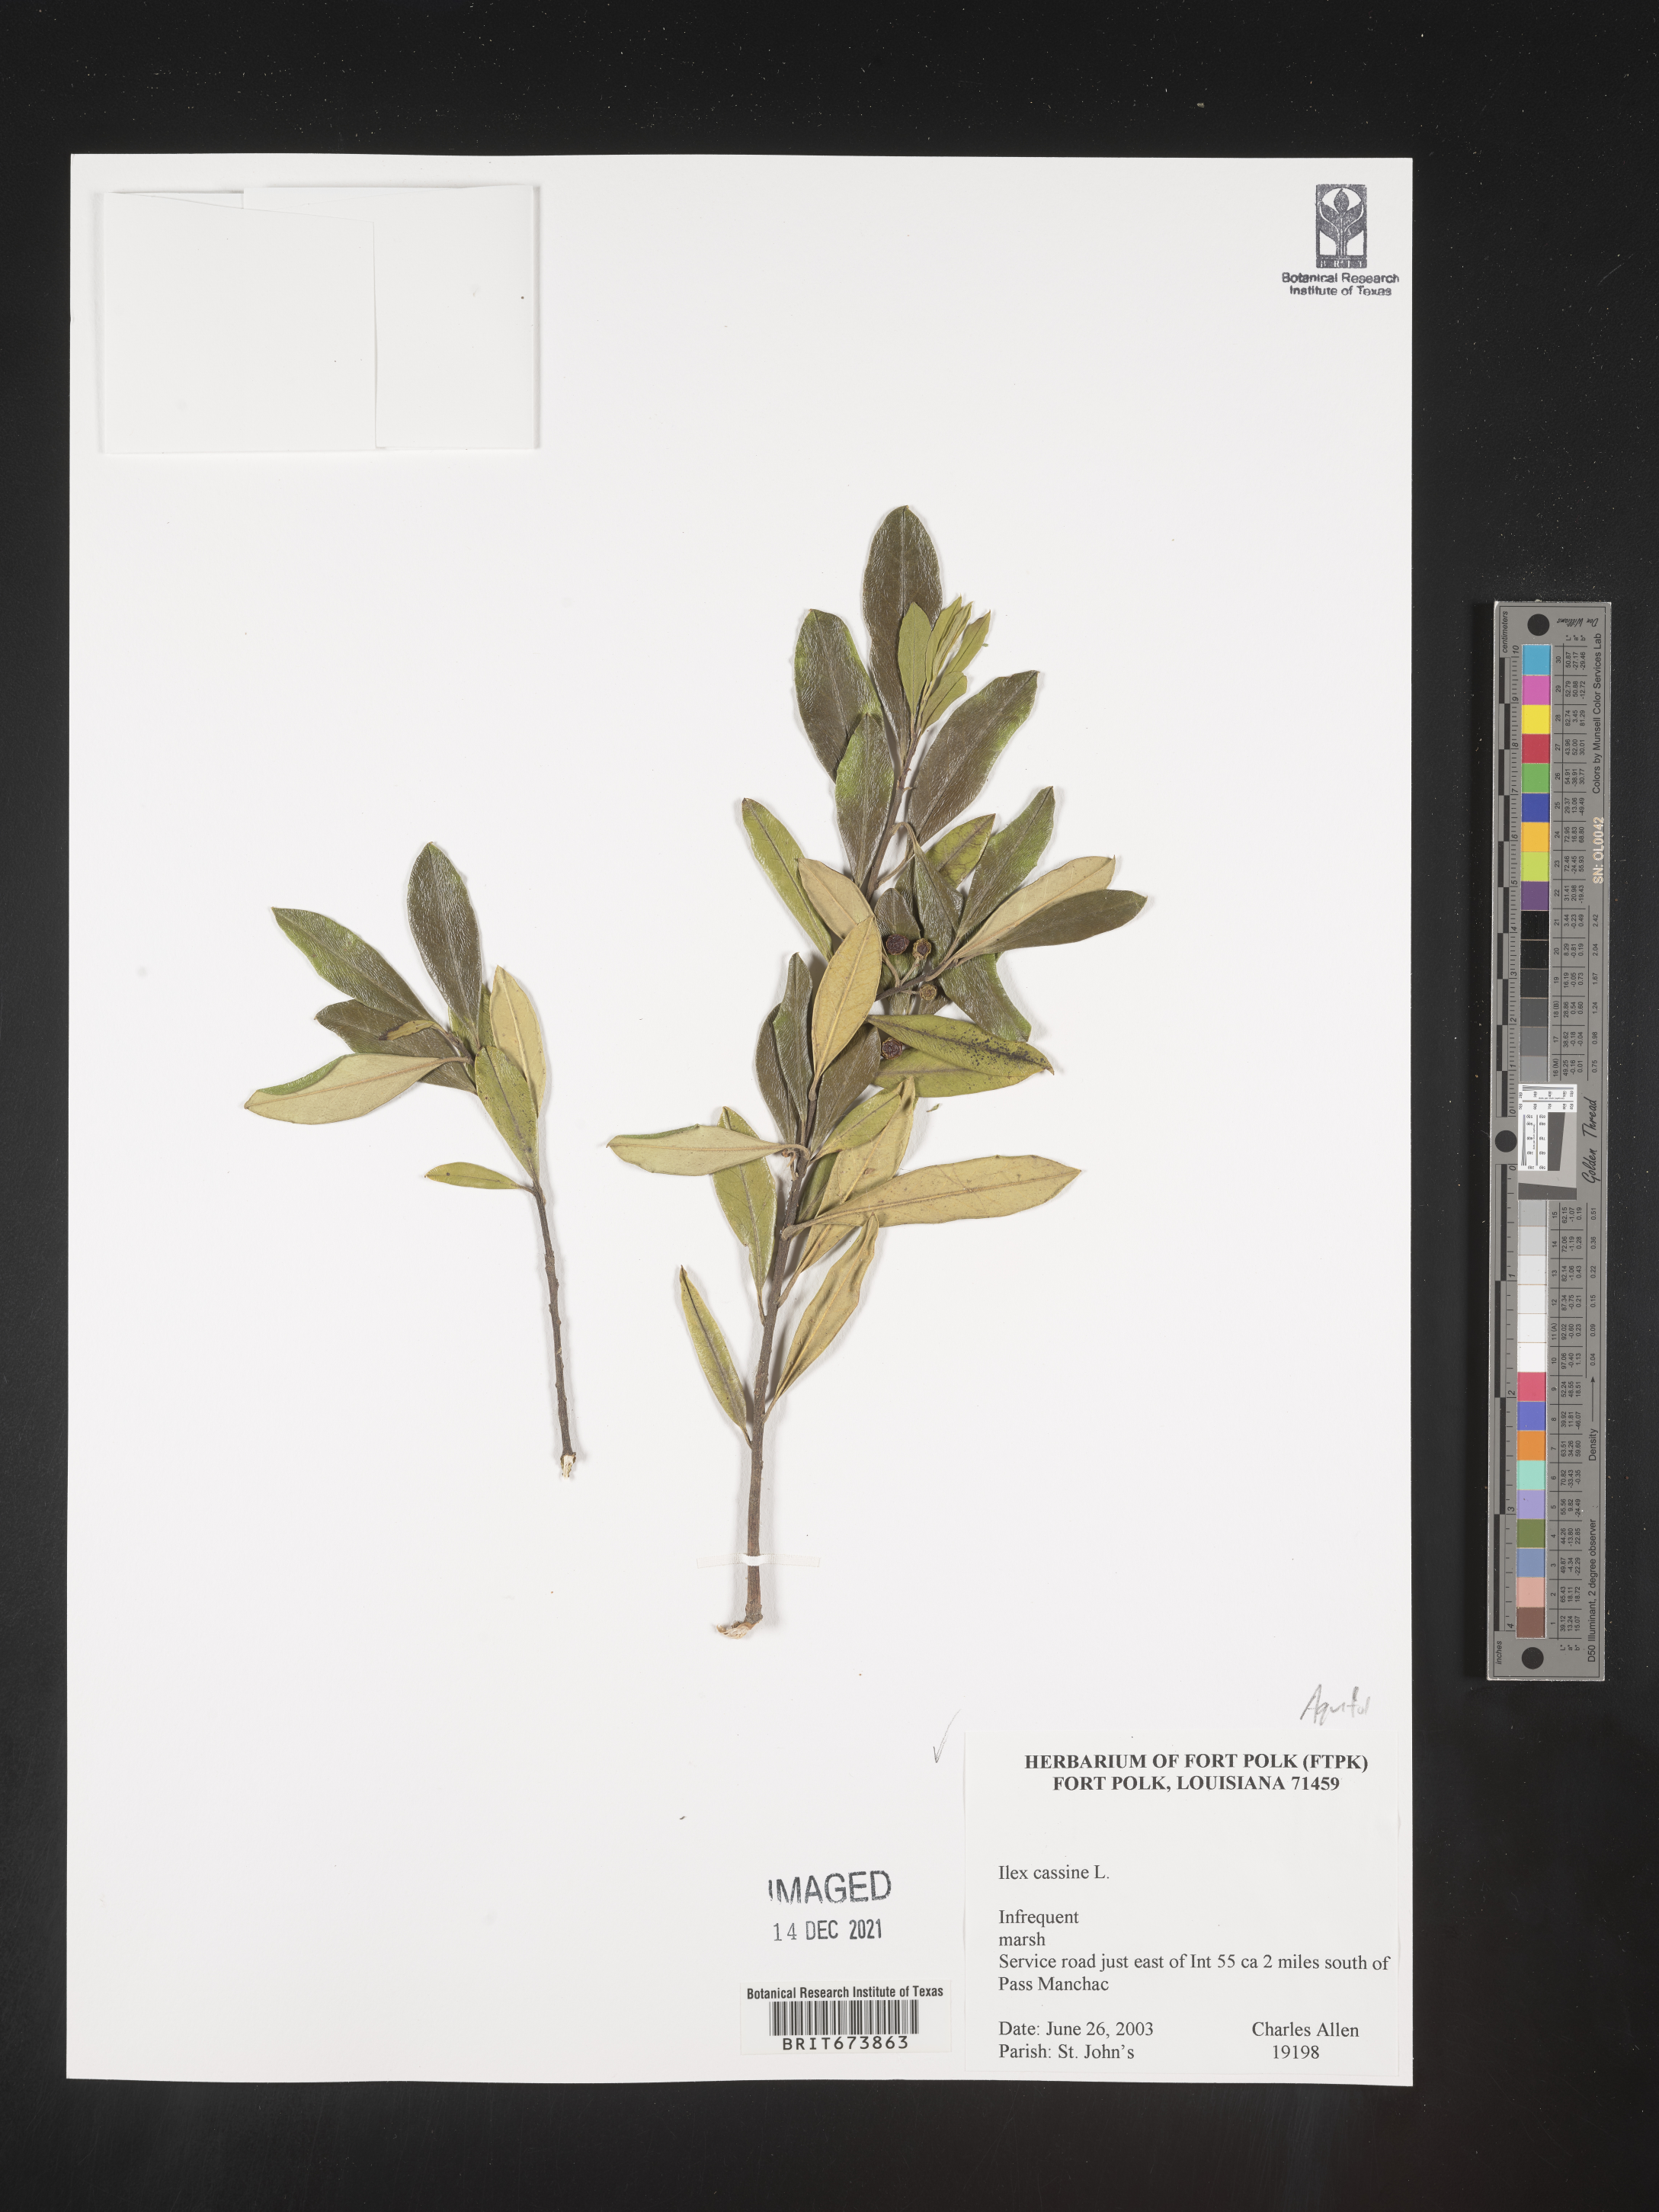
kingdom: Plantae
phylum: Tracheophyta
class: Magnoliopsida
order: Aquifoliales
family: Aquifoliaceae
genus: Ilex
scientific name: Ilex cassine
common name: Dahoon
